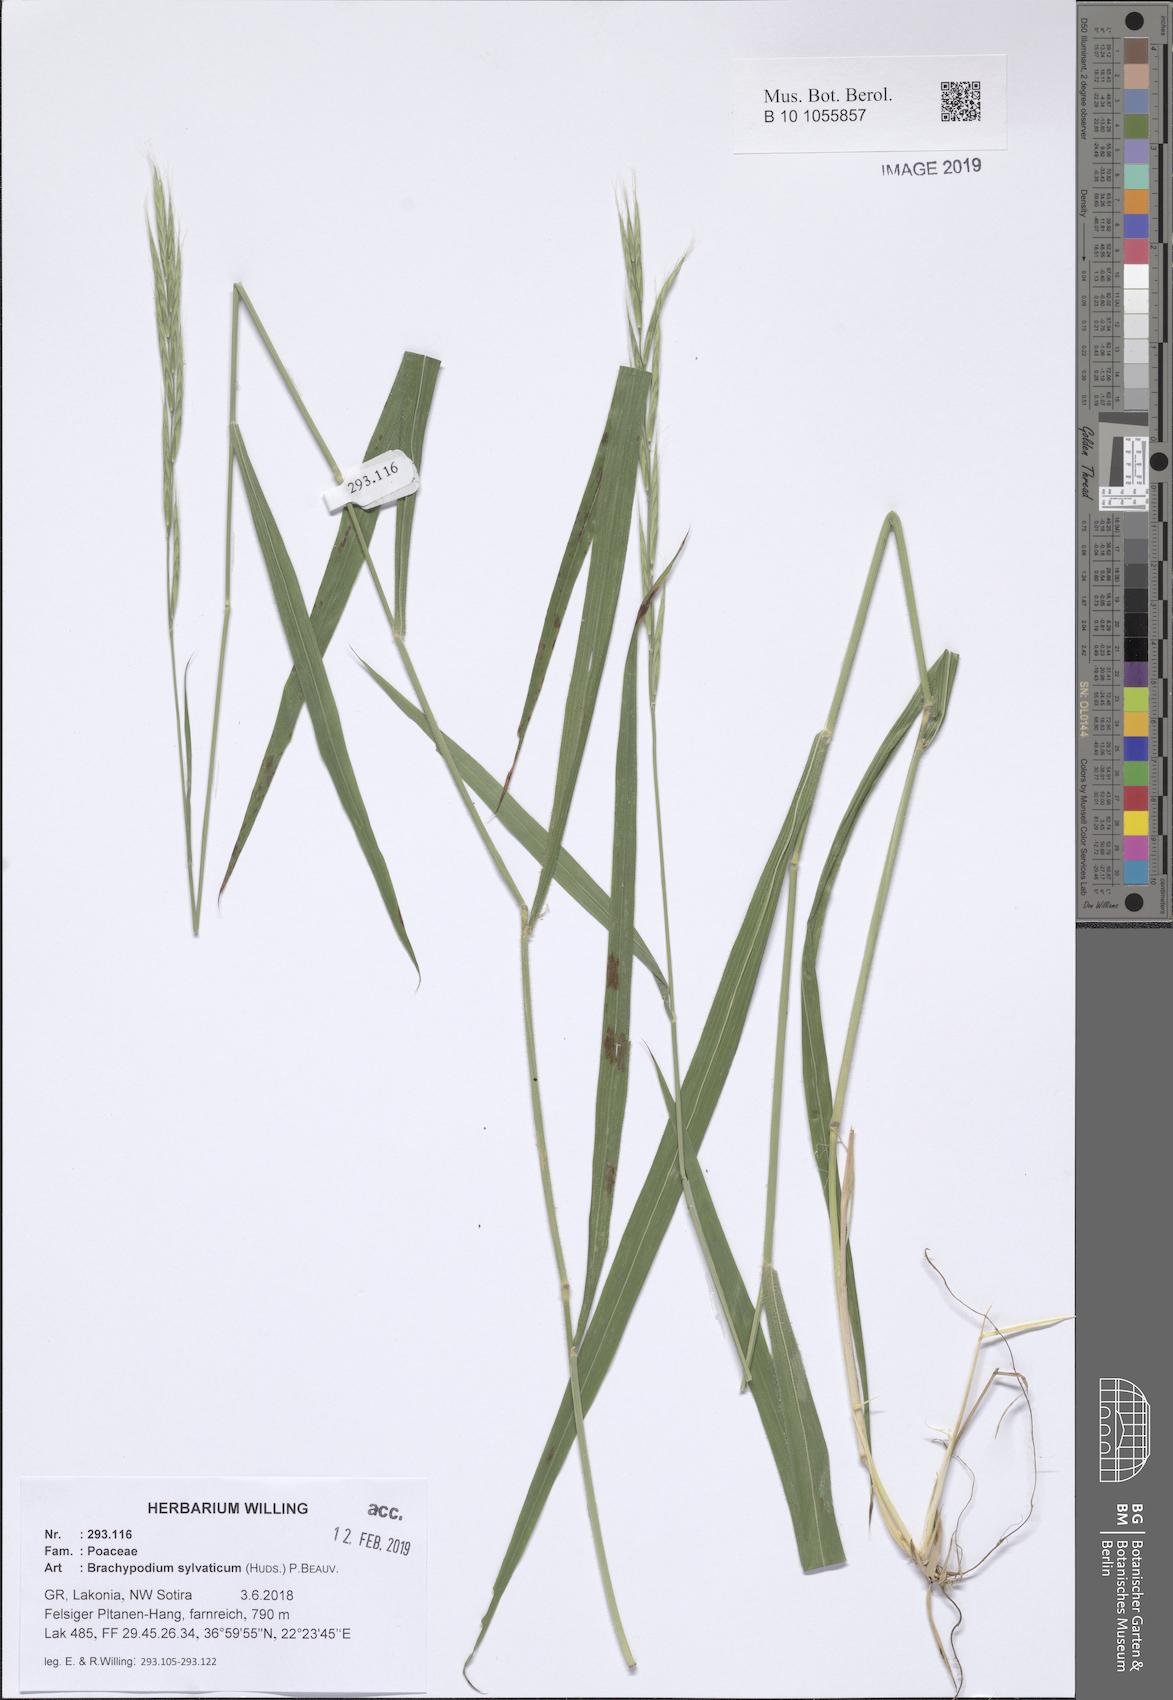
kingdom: Plantae
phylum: Tracheophyta
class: Liliopsida
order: Poales
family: Poaceae
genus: Brachypodium
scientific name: Brachypodium sylvaticum
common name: False-brome
